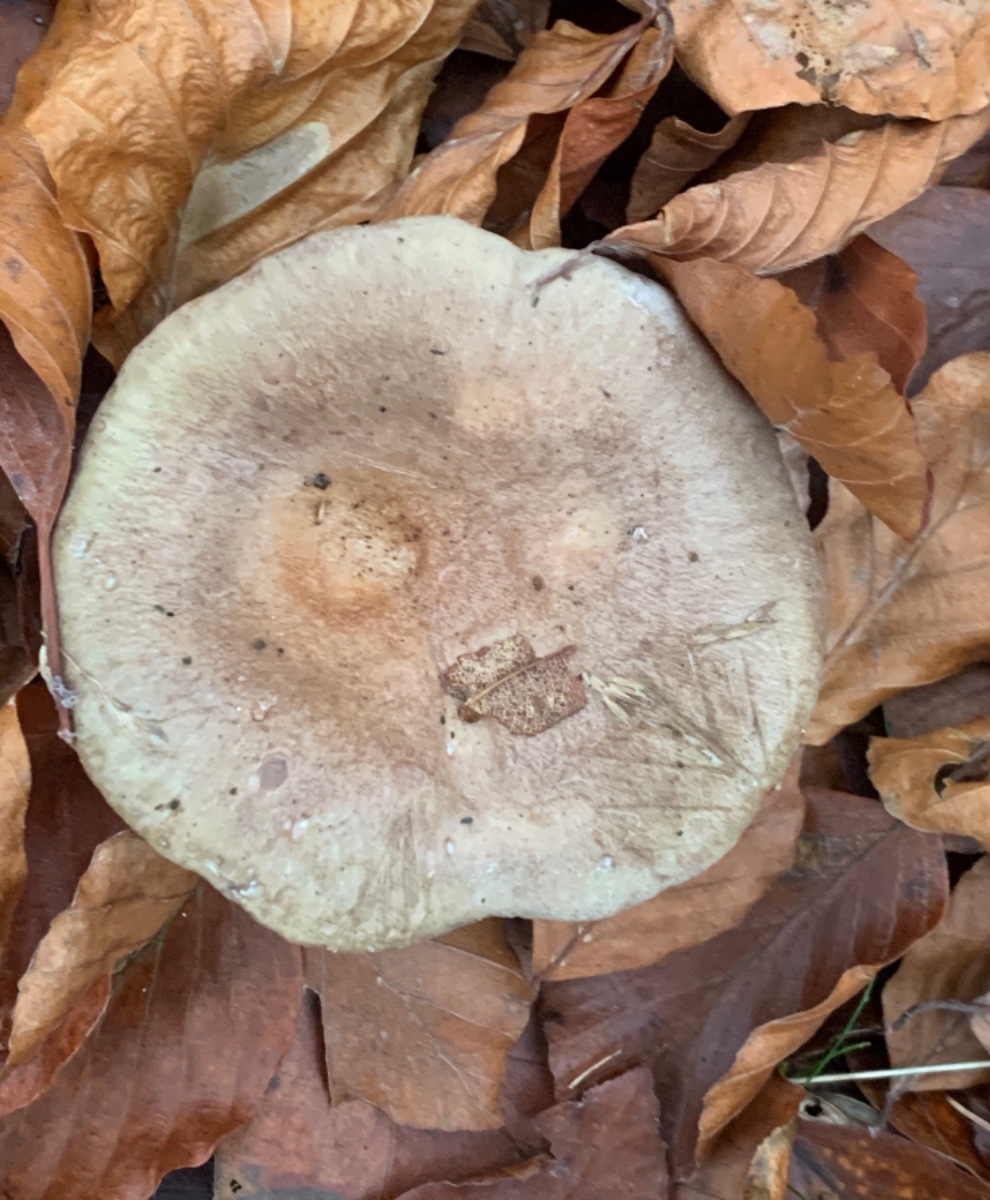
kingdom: Fungi
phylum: Basidiomycota
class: Agaricomycetes
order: Russulales
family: Russulaceae
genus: Lactarius
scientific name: Lactarius blennius
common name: dråbeplettet mælkehat
